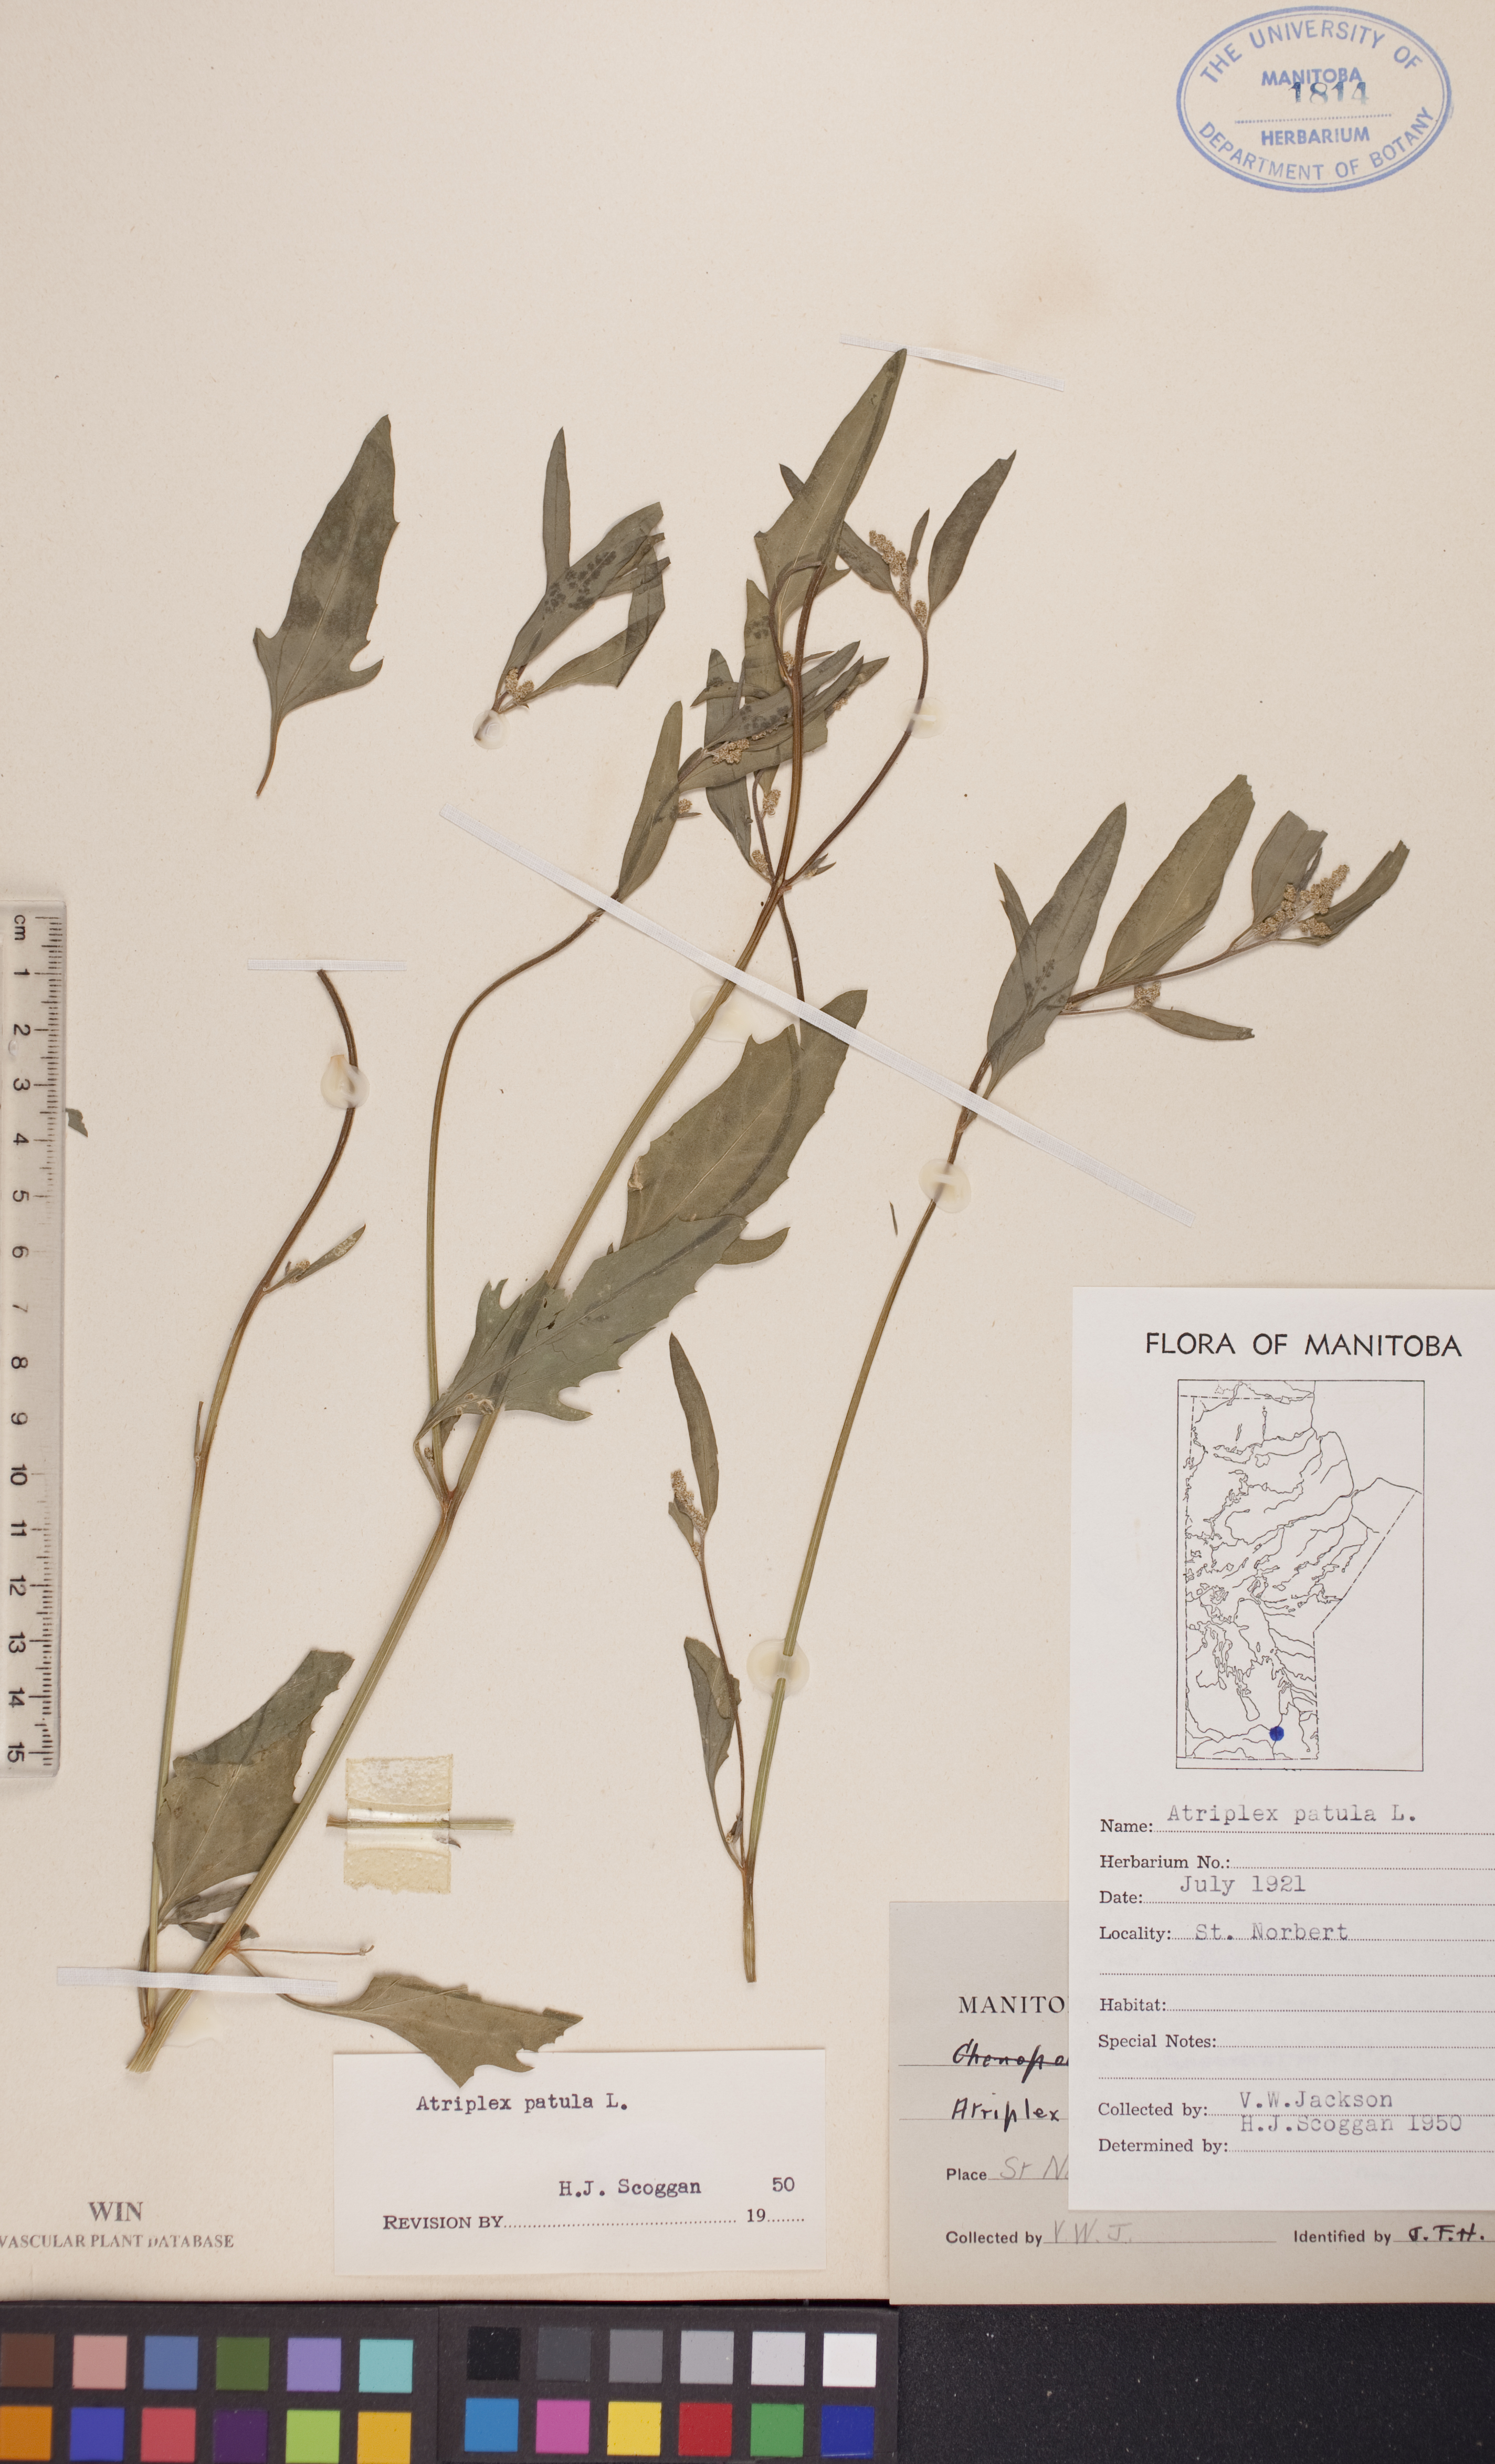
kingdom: Plantae
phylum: Tracheophyta
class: Magnoliopsida
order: Caryophyllales
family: Amaranthaceae
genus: Atriplex
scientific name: Atriplex patula
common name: Common orache
